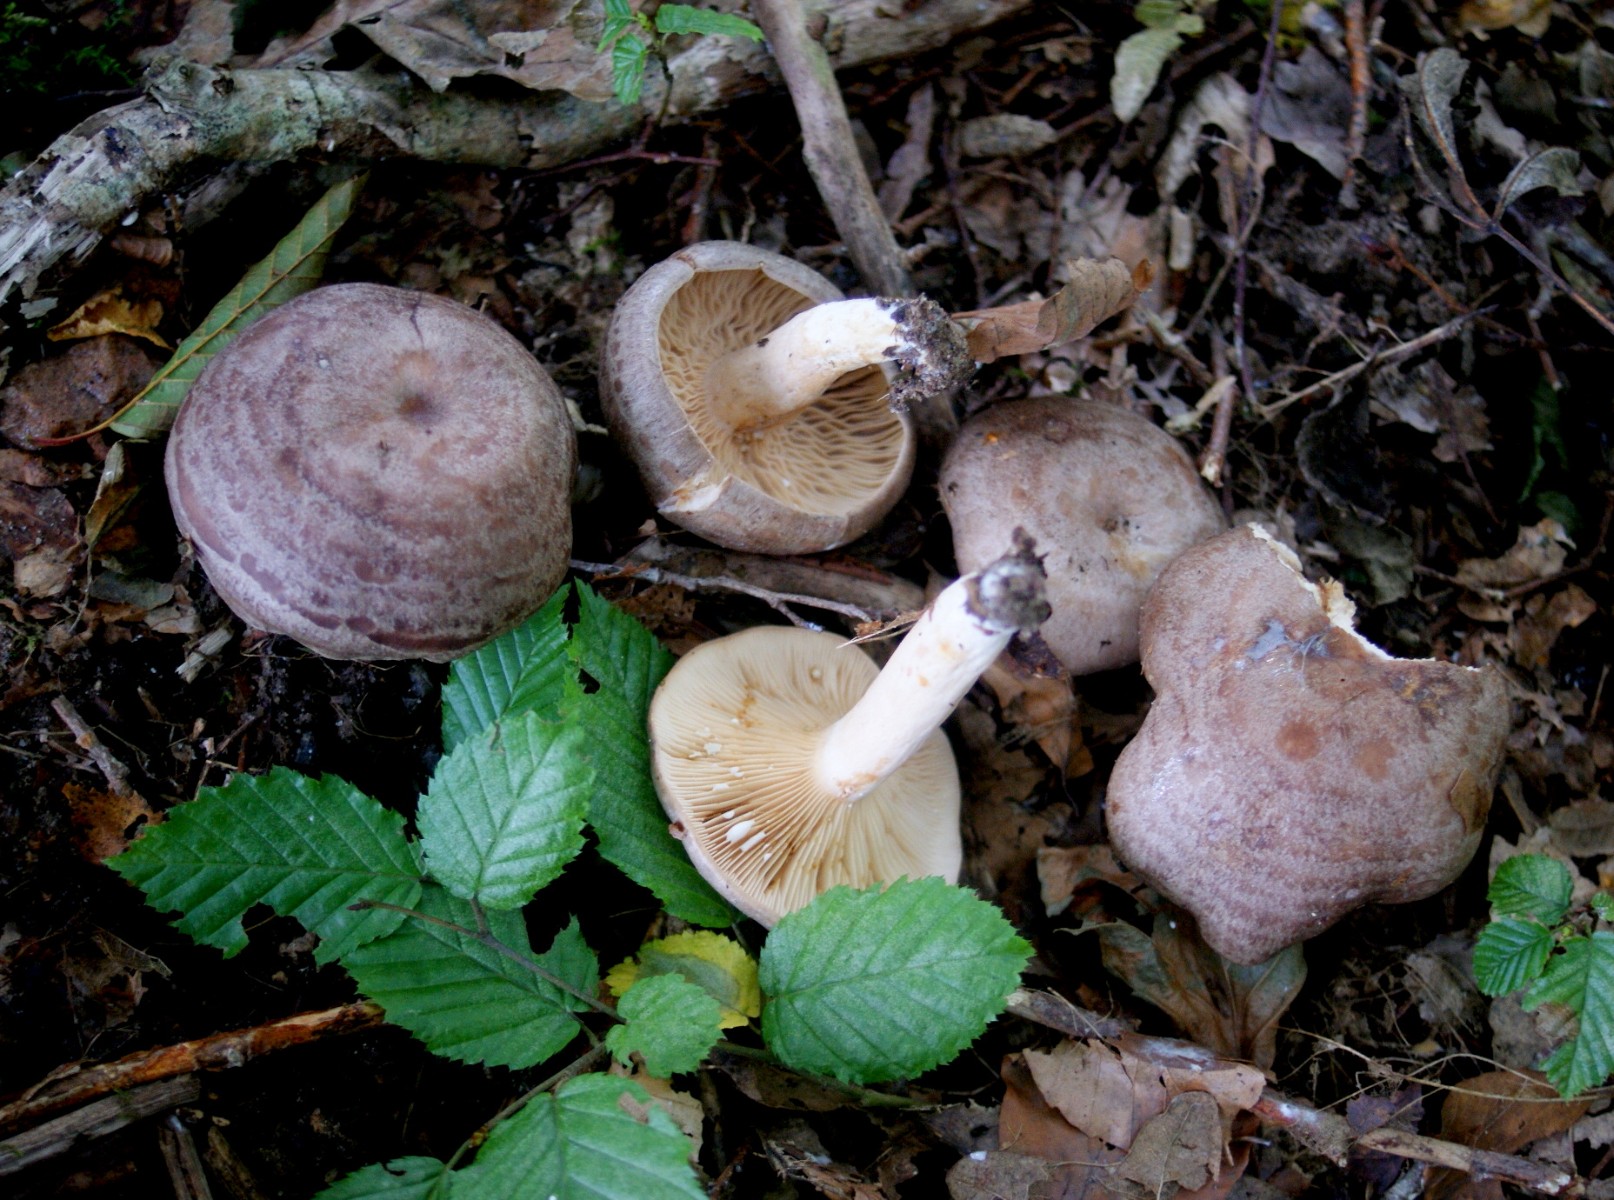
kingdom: Fungi
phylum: Basidiomycota
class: Agaricomycetes
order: Russulales
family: Russulaceae
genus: Lactarius
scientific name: Lactarius circellatus
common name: avnbøg-mælkehat
